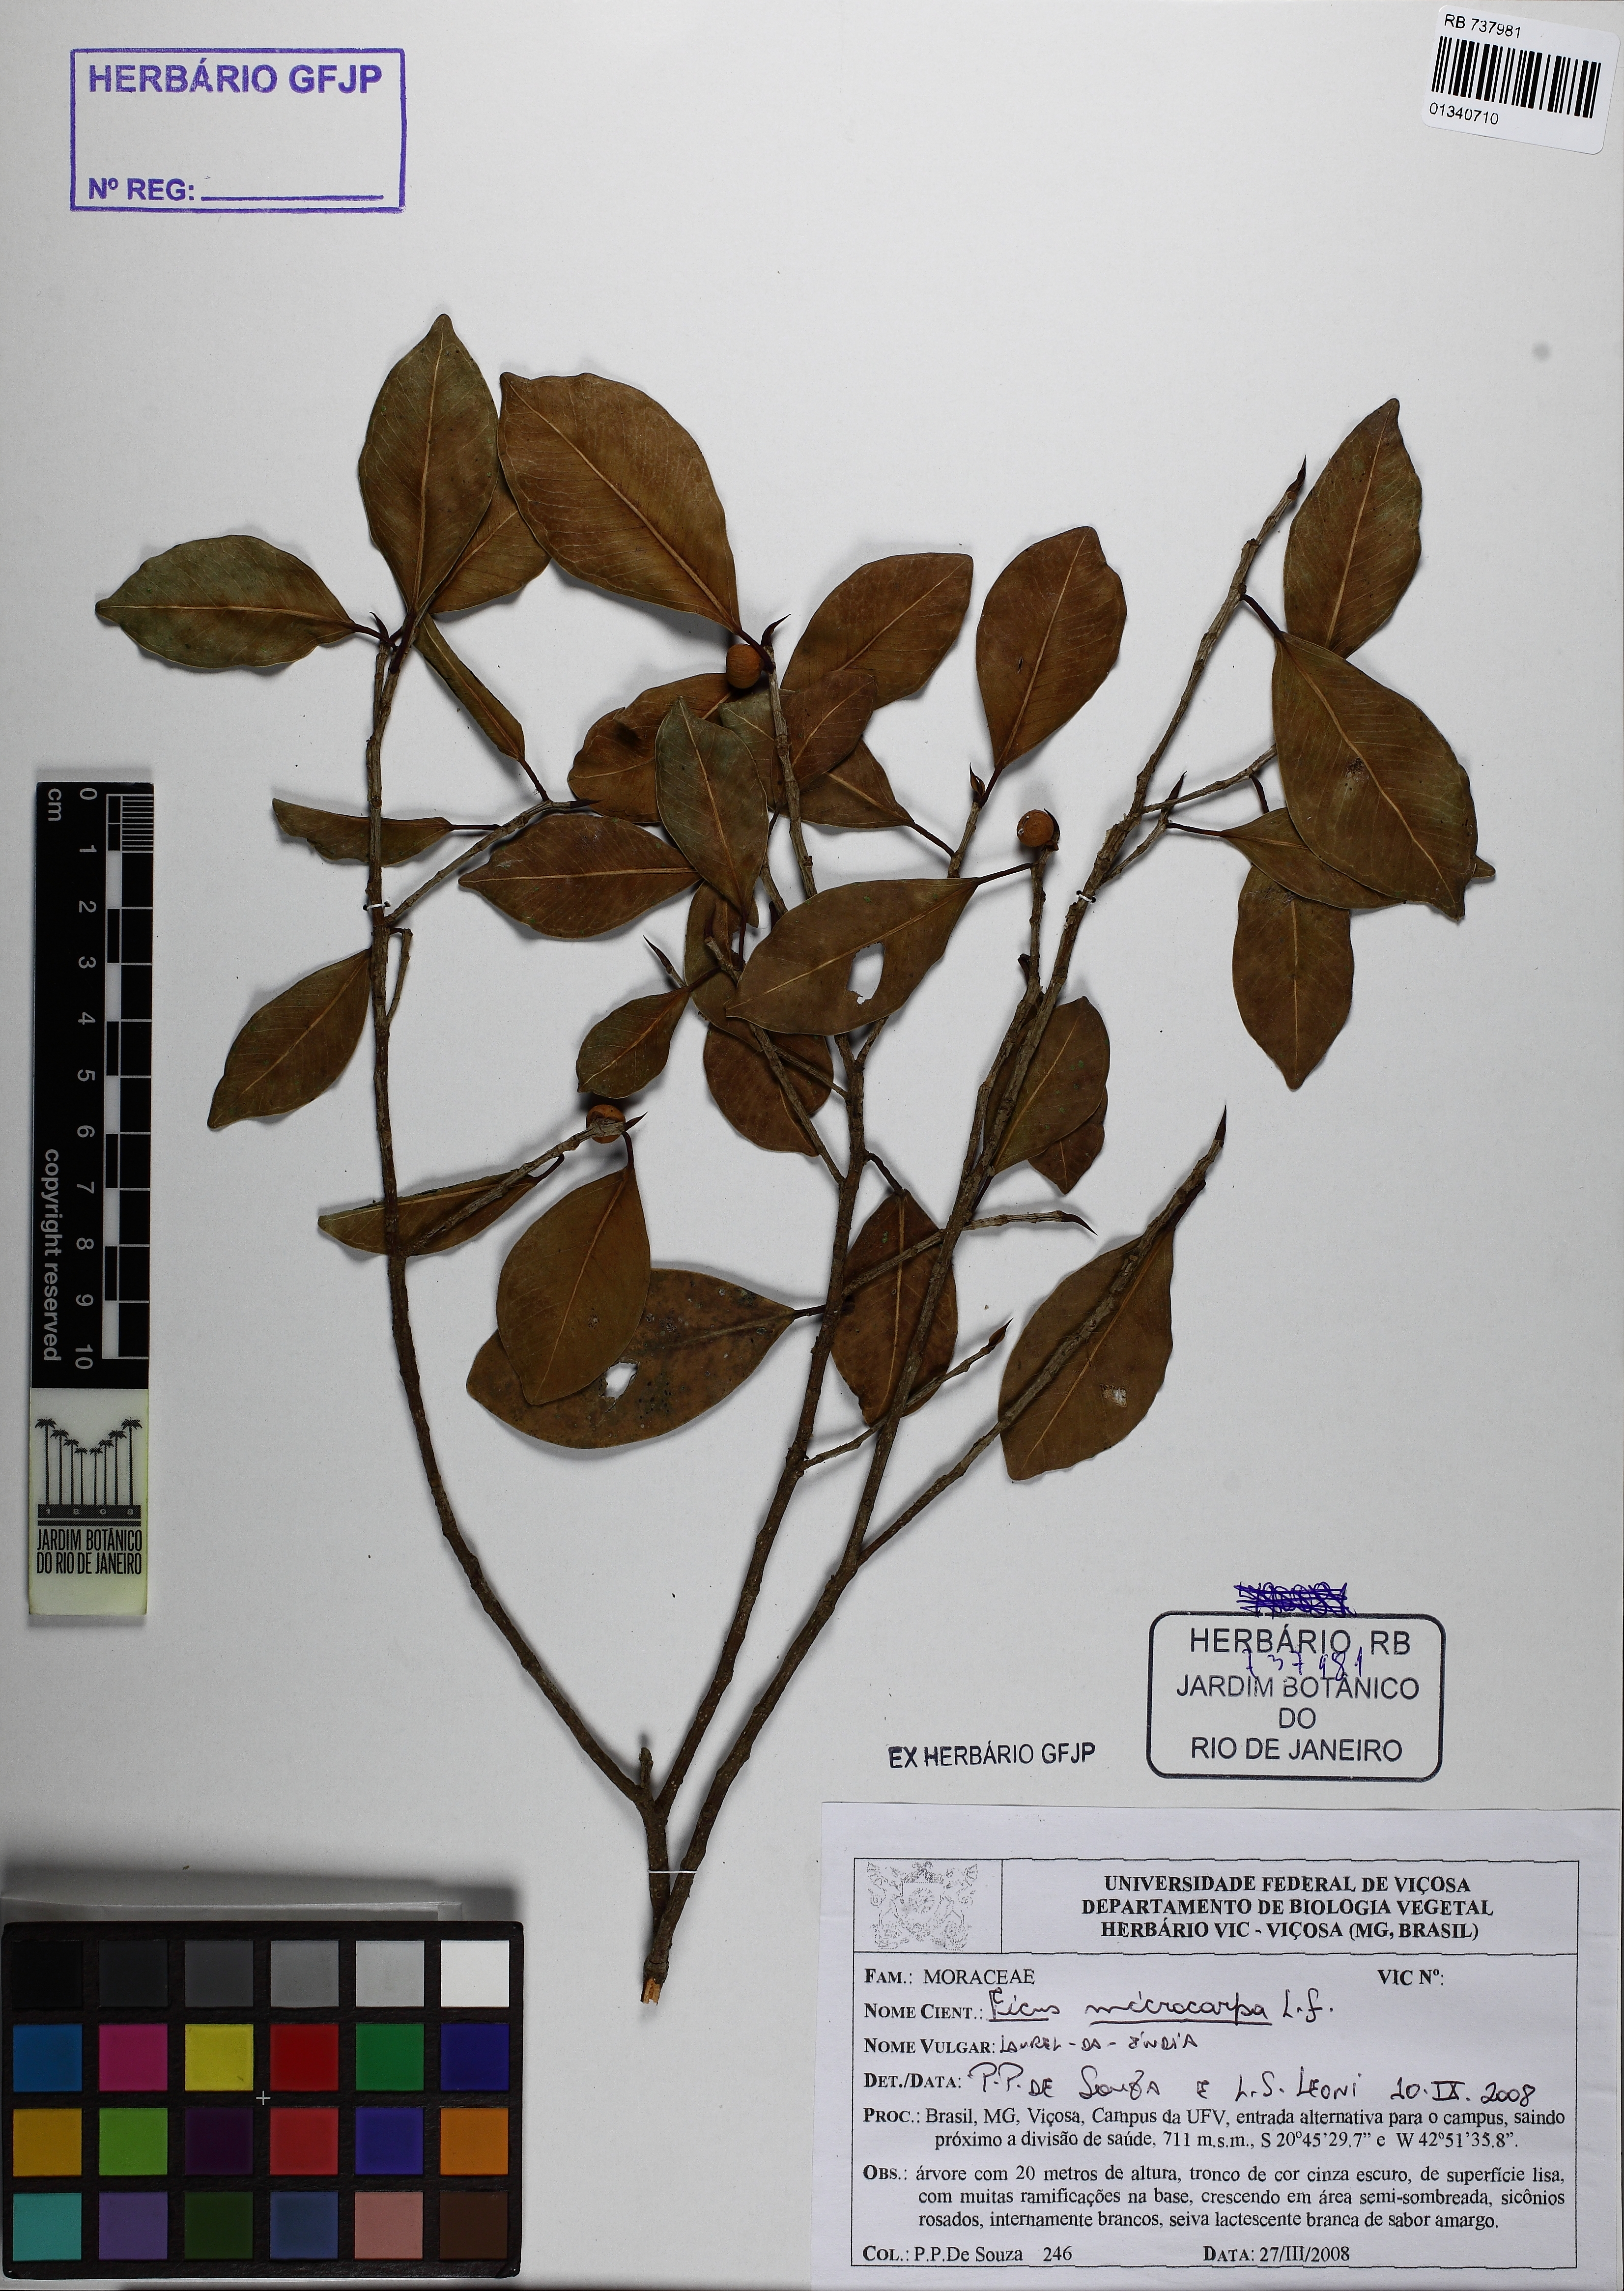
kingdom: Plantae
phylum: Tracheophyta
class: Magnoliopsida
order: Rosales
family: Moraceae
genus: Ficus
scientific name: Ficus microcarpa
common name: Chinese banyan
